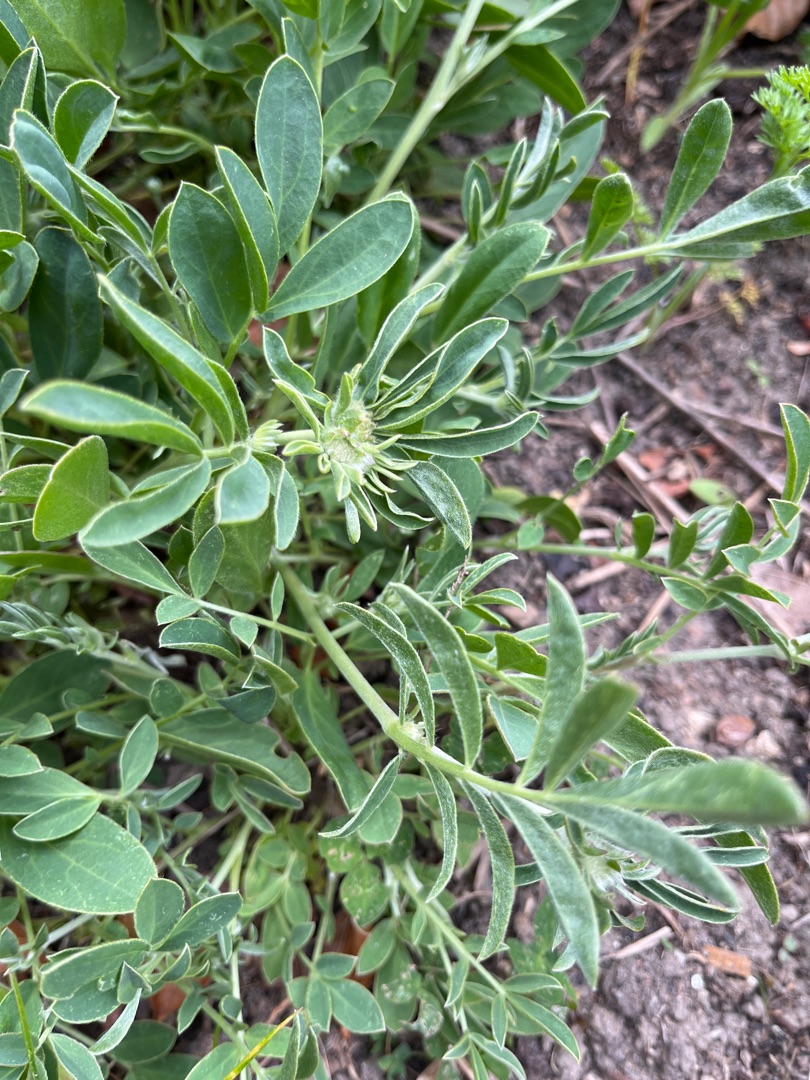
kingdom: Plantae
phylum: Tracheophyta
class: Magnoliopsida
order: Fabales
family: Fabaceae
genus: Anthyllis
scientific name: Anthyllis vulneraria
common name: Rundbælg
